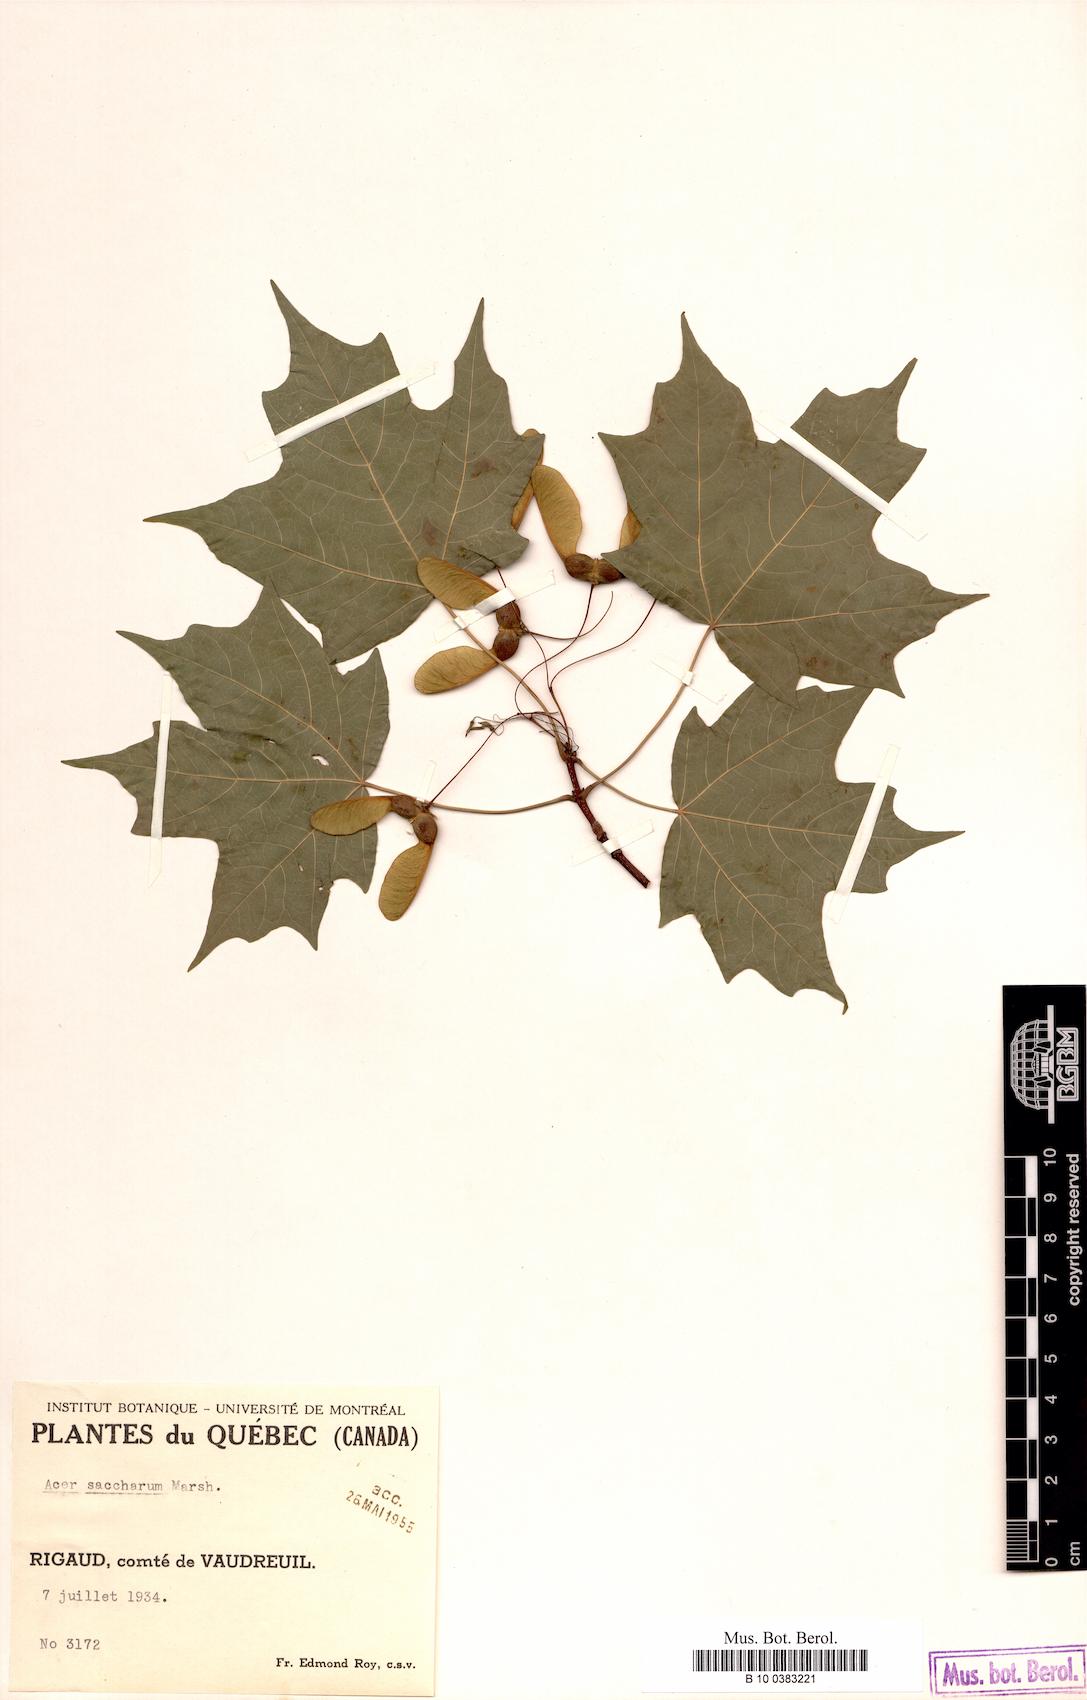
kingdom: Plantae
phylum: Tracheophyta
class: Magnoliopsida
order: Sapindales
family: Sapindaceae
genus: Acer
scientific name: Acer saccharum
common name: Sugar maple
